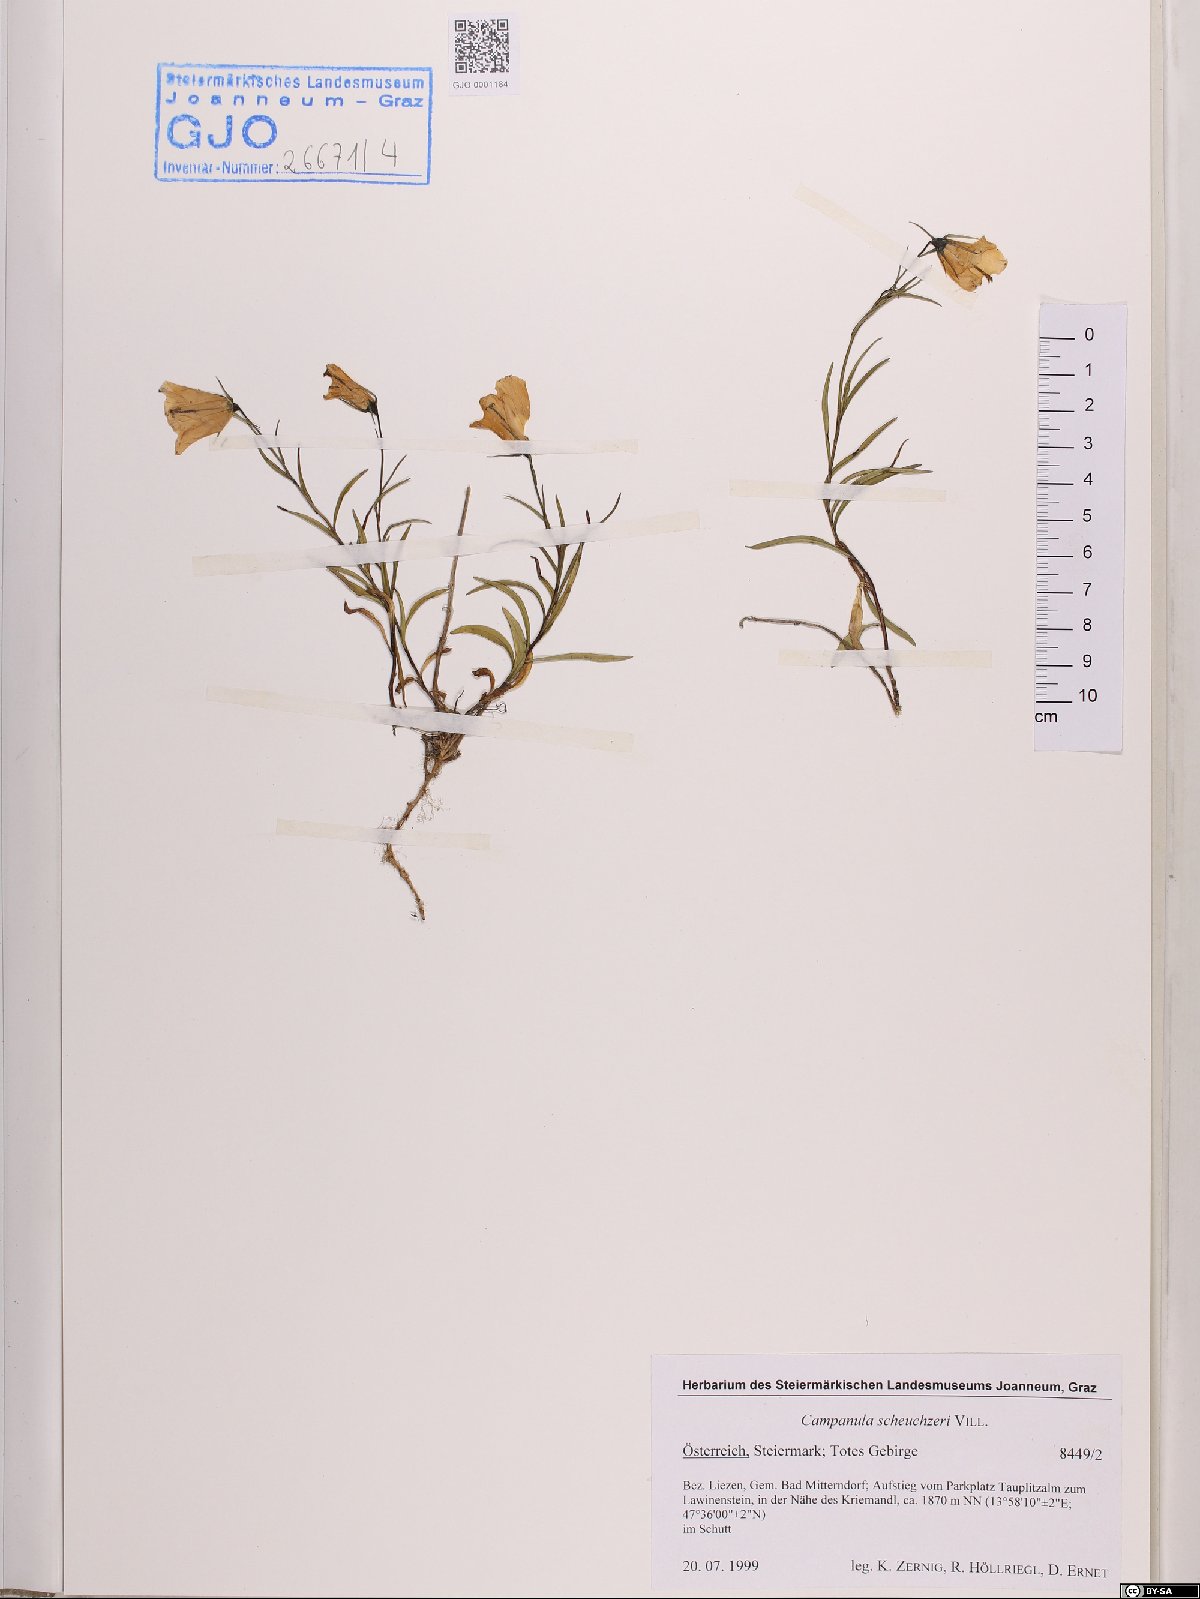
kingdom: Plantae
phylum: Tracheophyta
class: Magnoliopsida
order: Asterales
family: Campanulaceae
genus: Campanula
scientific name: Campanula scheuchzeri
